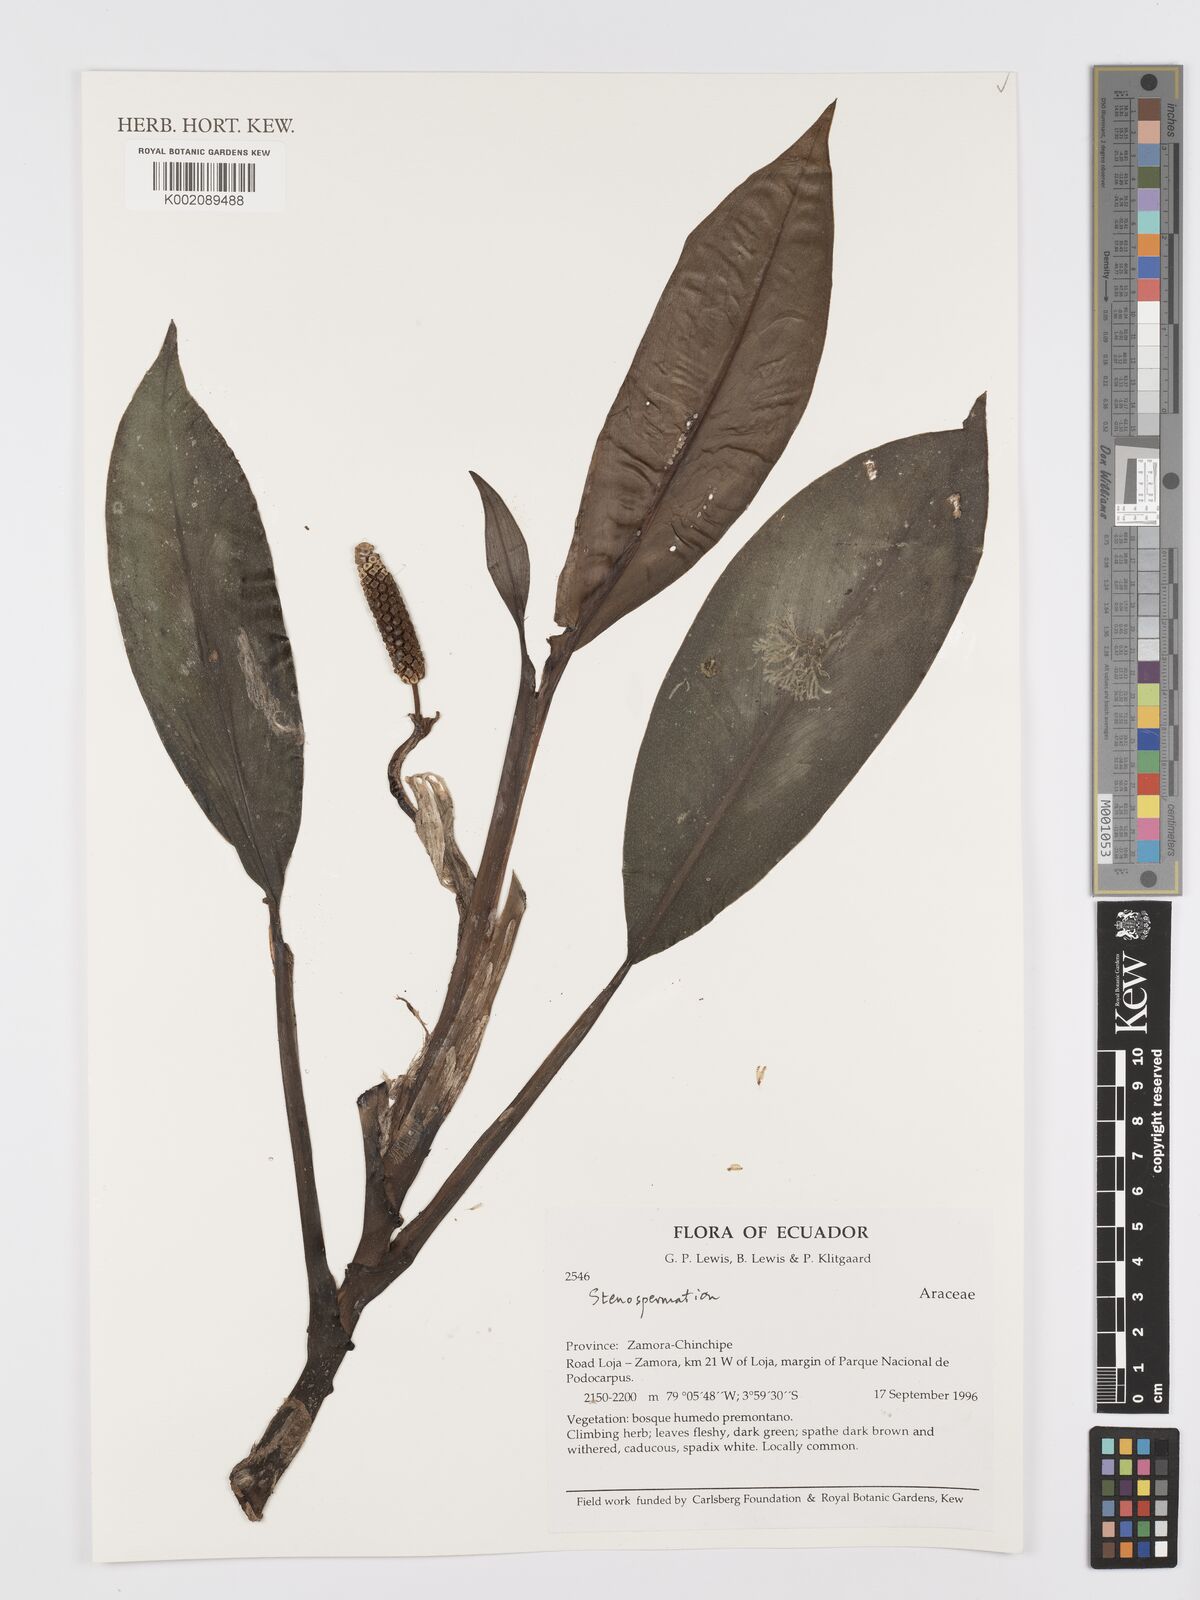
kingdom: Plantae
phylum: Tracheophyta
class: Liliopsida
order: Alismatales
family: Araceae
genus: Stenospermation
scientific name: Stenospermation zeacarpium
